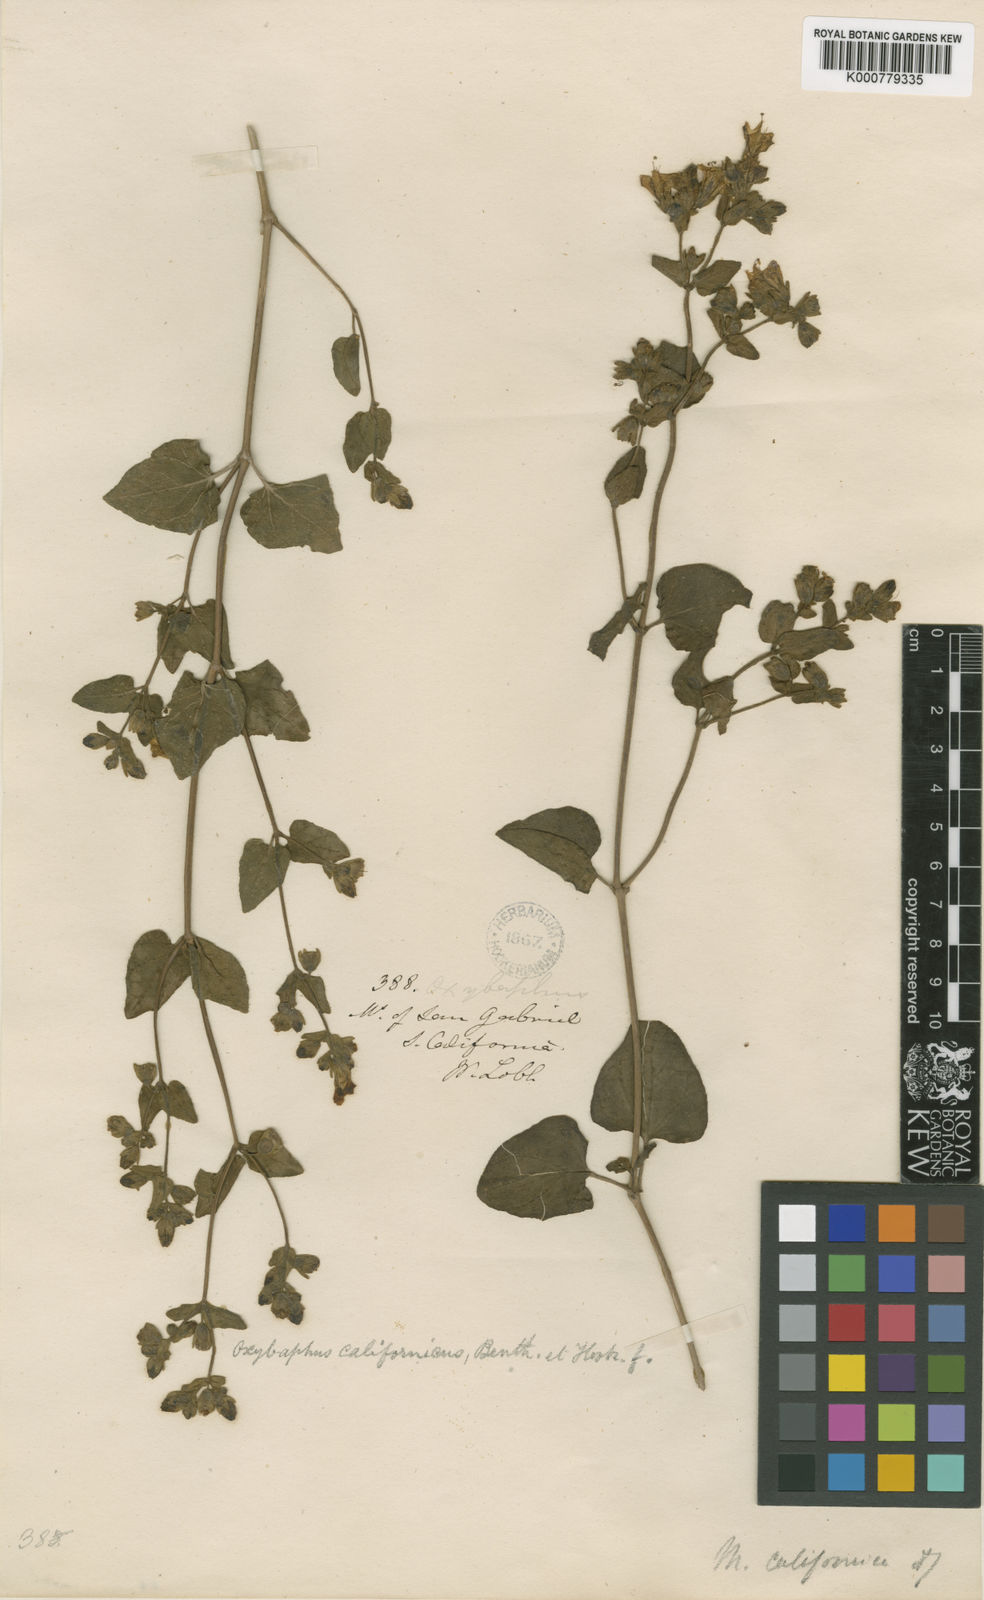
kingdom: Plantae
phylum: Tracheophyta
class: Magnoliopsida
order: Caryophyllales
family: Nyctaginaceae
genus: Mirabilis
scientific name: Mirabilis laevis
